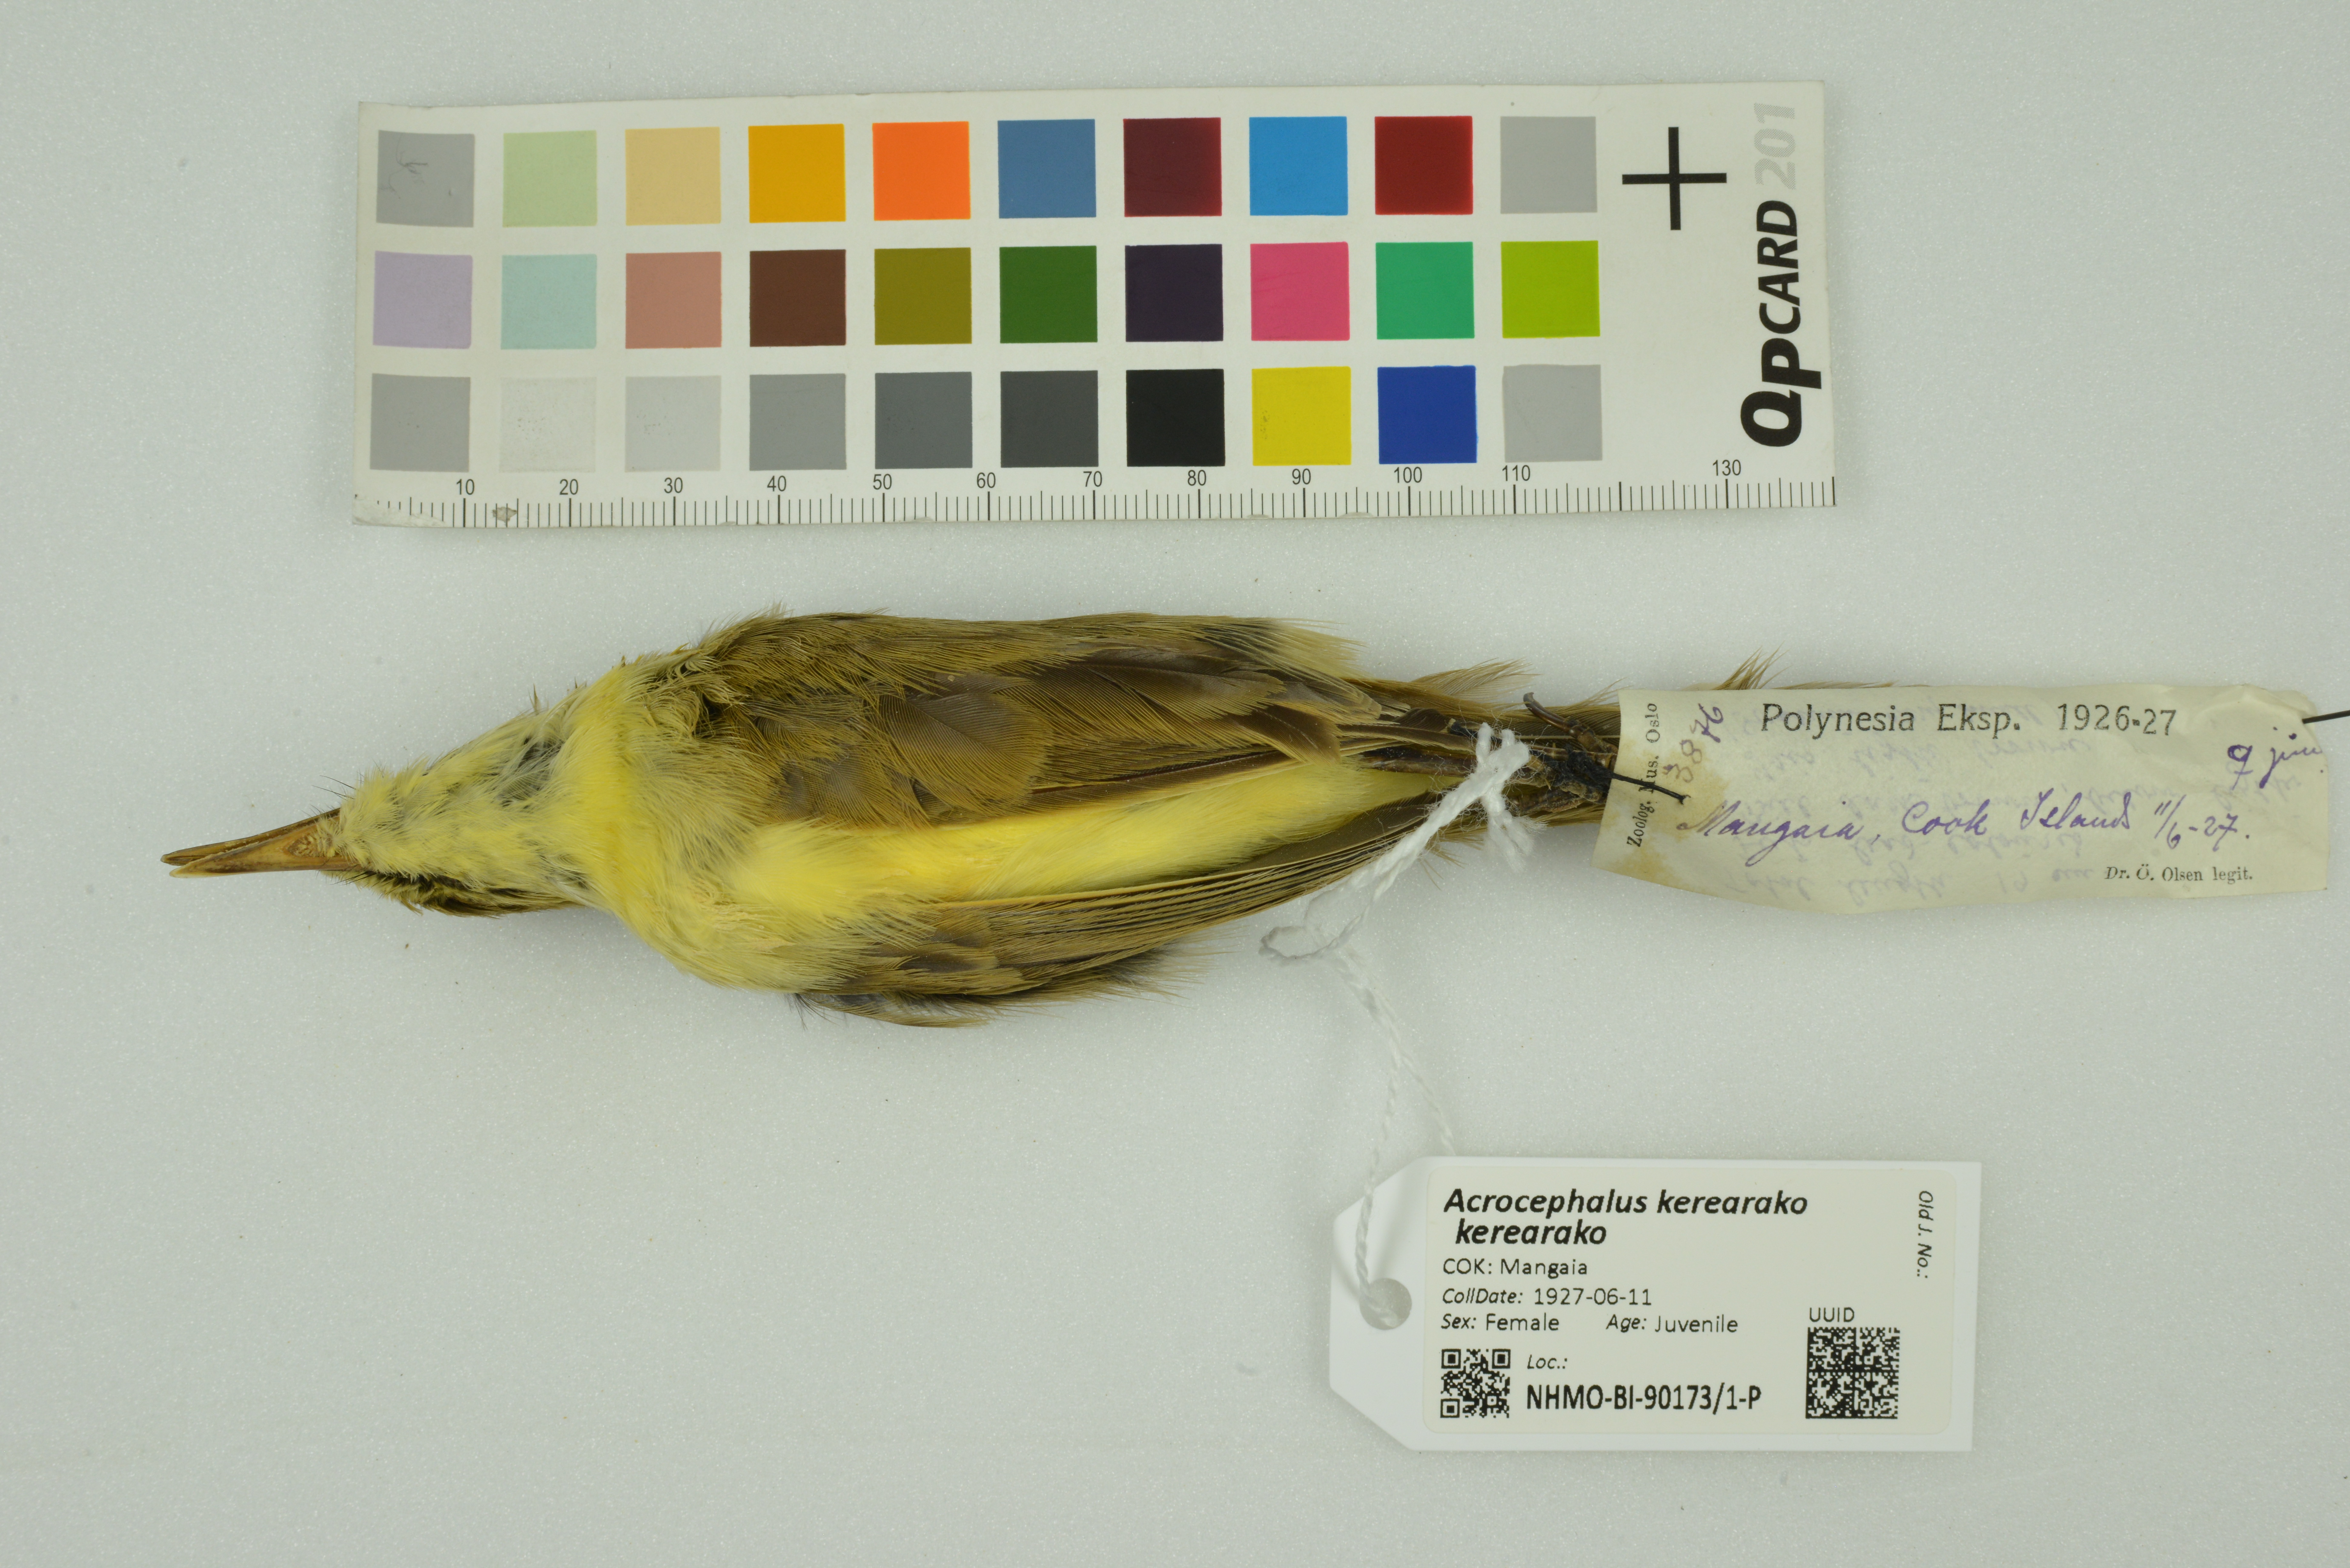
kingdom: Animalia
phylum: Chordata
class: Aves
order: Passeriformes
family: Acrocephalidae
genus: Acrocephalus
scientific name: Acrocephalus kerearako
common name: Cook reed warbler
